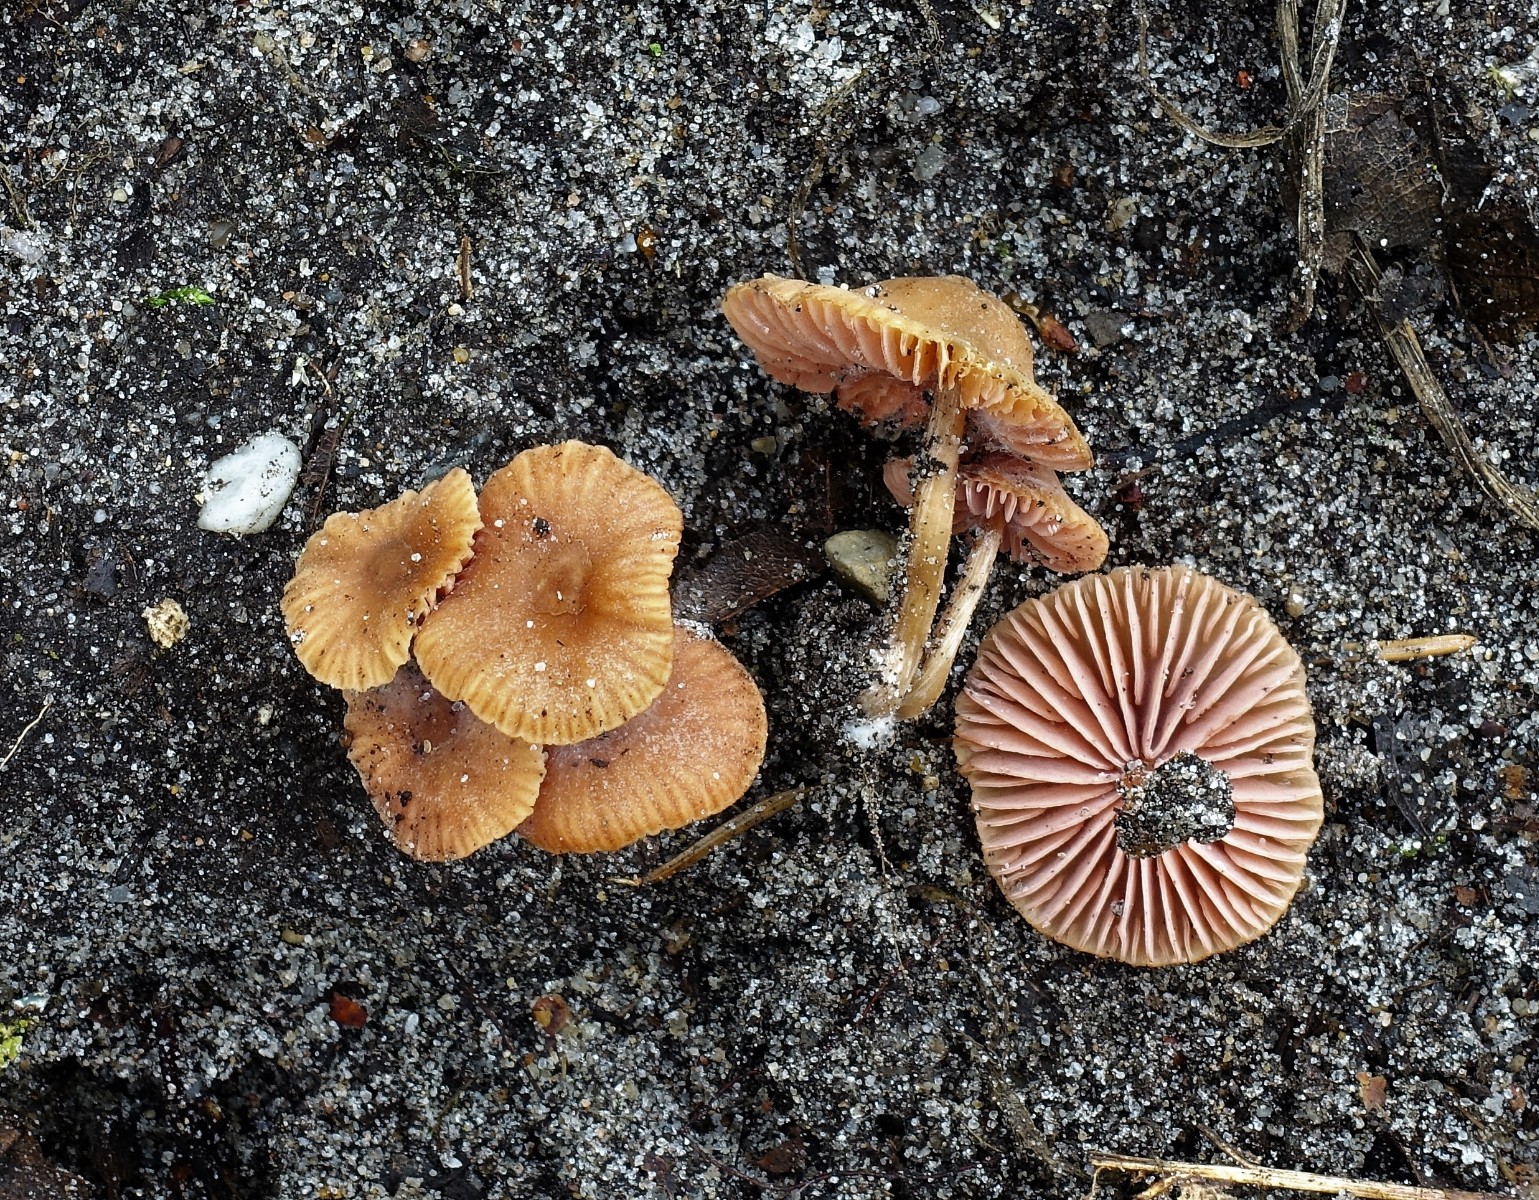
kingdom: Fungi
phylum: Basidiomycota
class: Agaricomycetes
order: Agaricales
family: Hydnangiaceae
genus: Laccaria
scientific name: Laccaria tortilis
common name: krybende ametysthat
